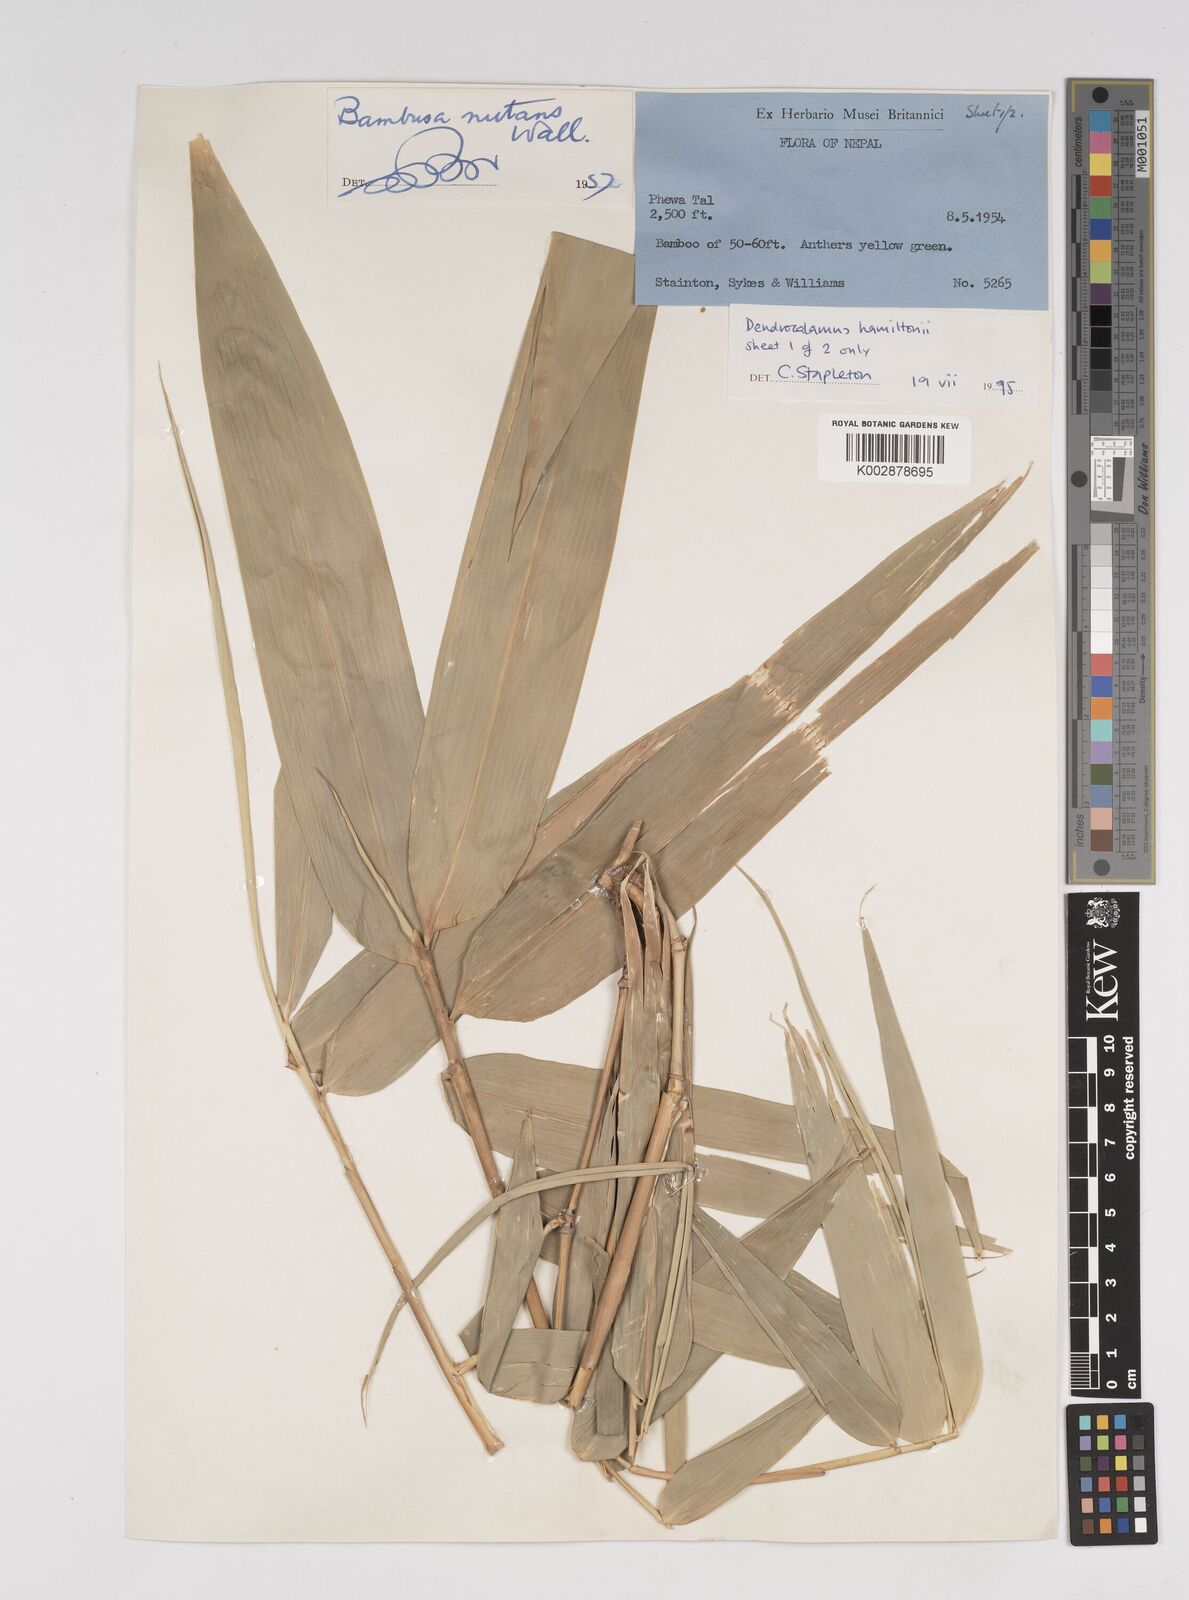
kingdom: Plantae
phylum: Tracheophyta
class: Liliopsida
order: Poales
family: Poaceae
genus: Dendrocalamus
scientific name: Dendrocalamus hamiltonii
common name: Tama bamboo
